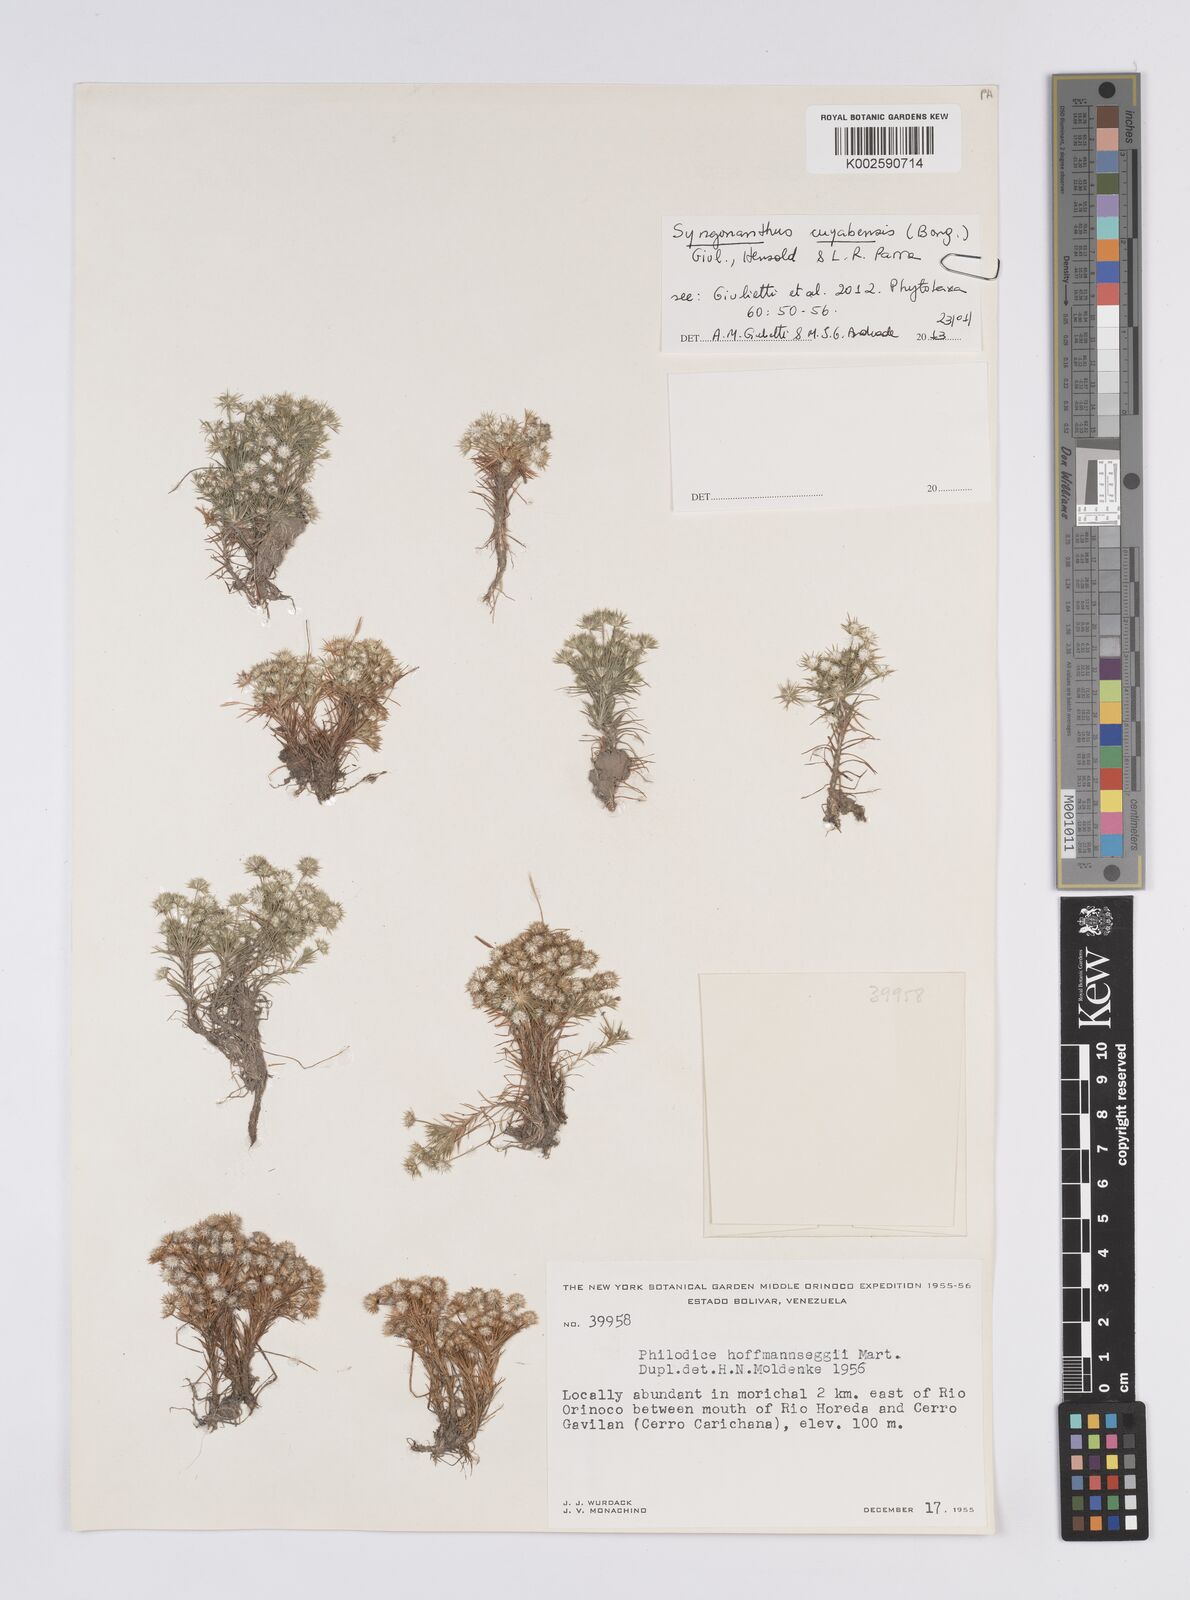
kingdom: Plantae
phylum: Tracheophyta
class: Liliopsida
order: Poales
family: Eriocaulaceae
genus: Syngonanthus
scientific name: Syngonanthus cuyabensis
